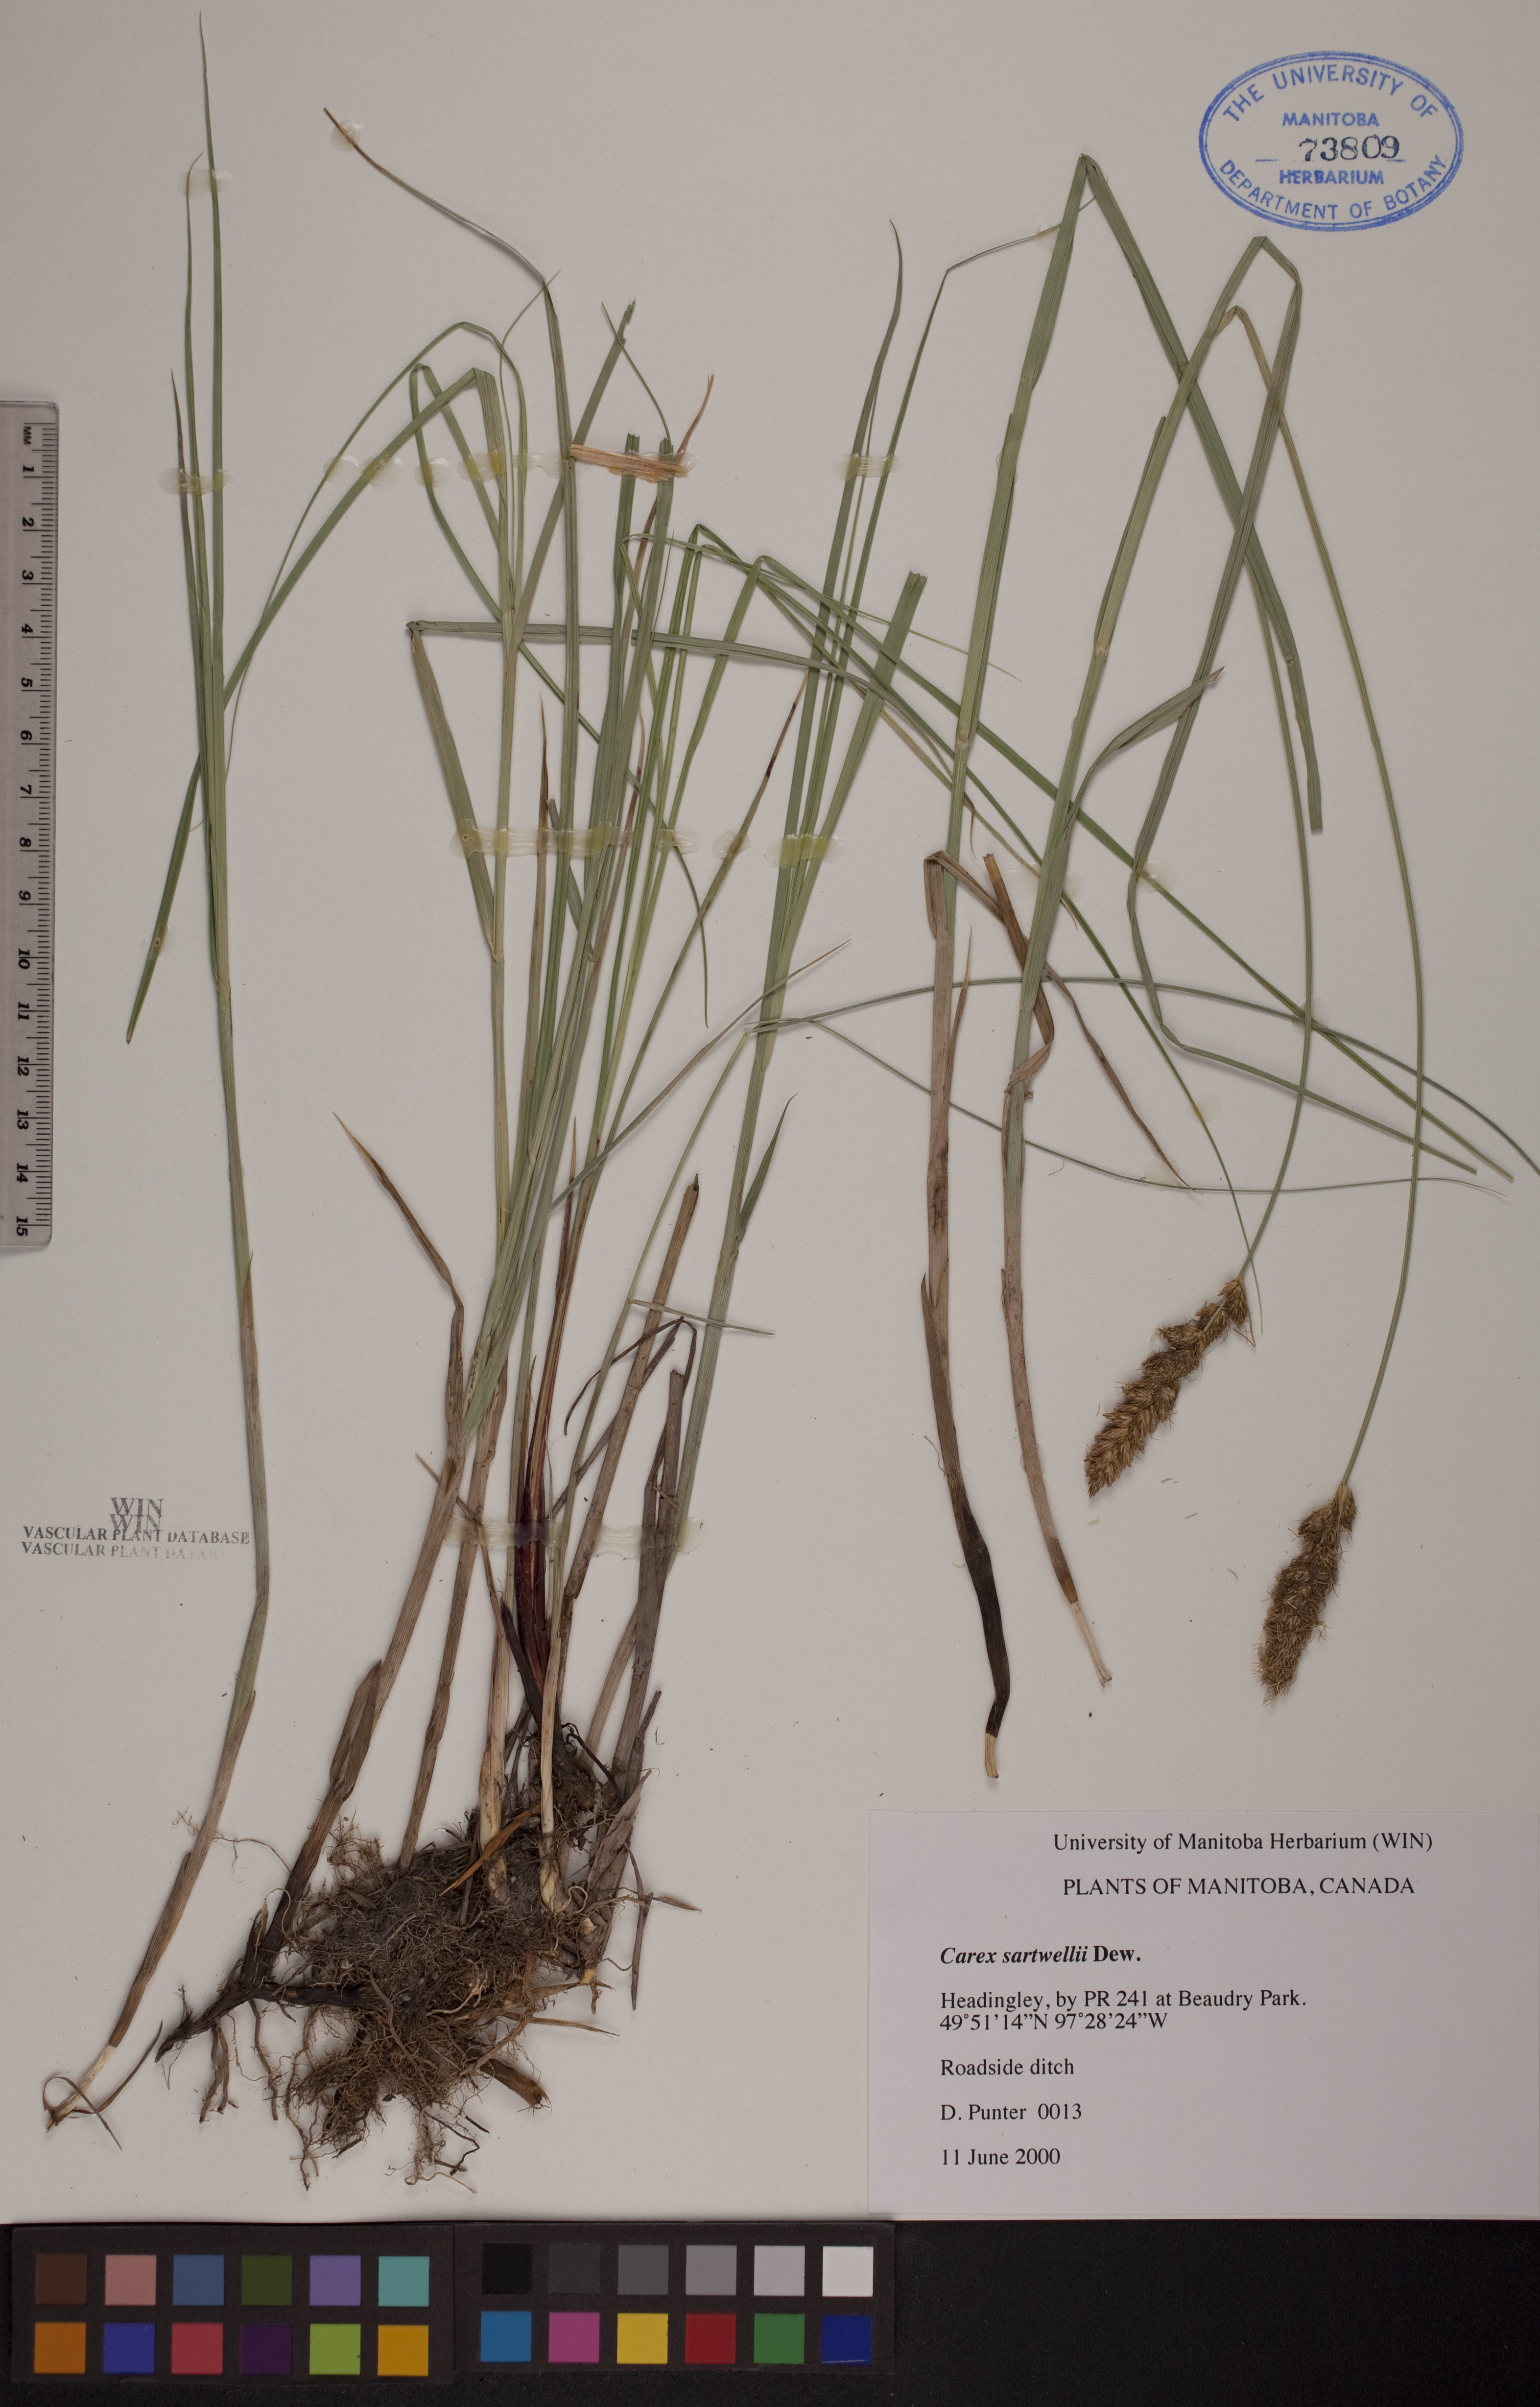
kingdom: Plantae
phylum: Tracheophyta
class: Liliopsida
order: Poales
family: Cyperaceae
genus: Carex
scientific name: Carex sartwellii
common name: Sartwell's sedge
